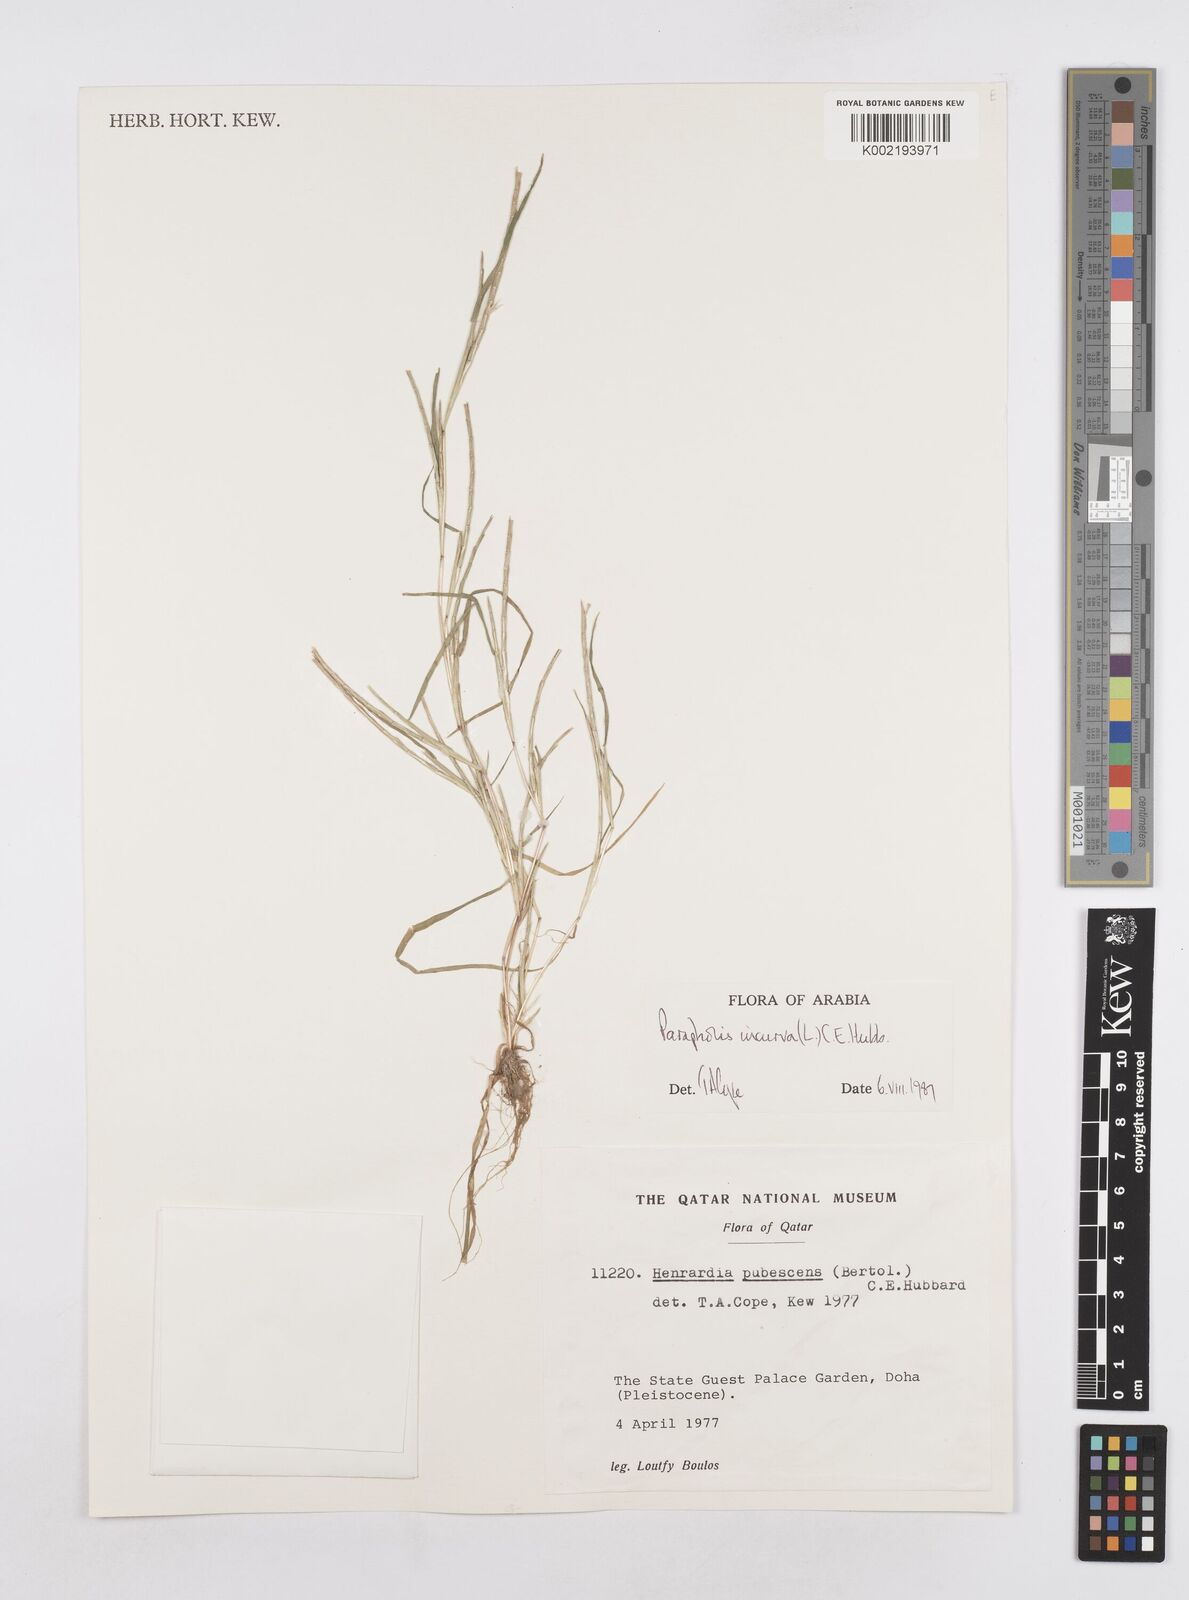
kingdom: Plantae
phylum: Tracheophyta
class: Liliopsida
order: Poales
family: Poaceae
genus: Parapholis
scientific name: Parapholis incurva
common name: Curved sicklegrass
